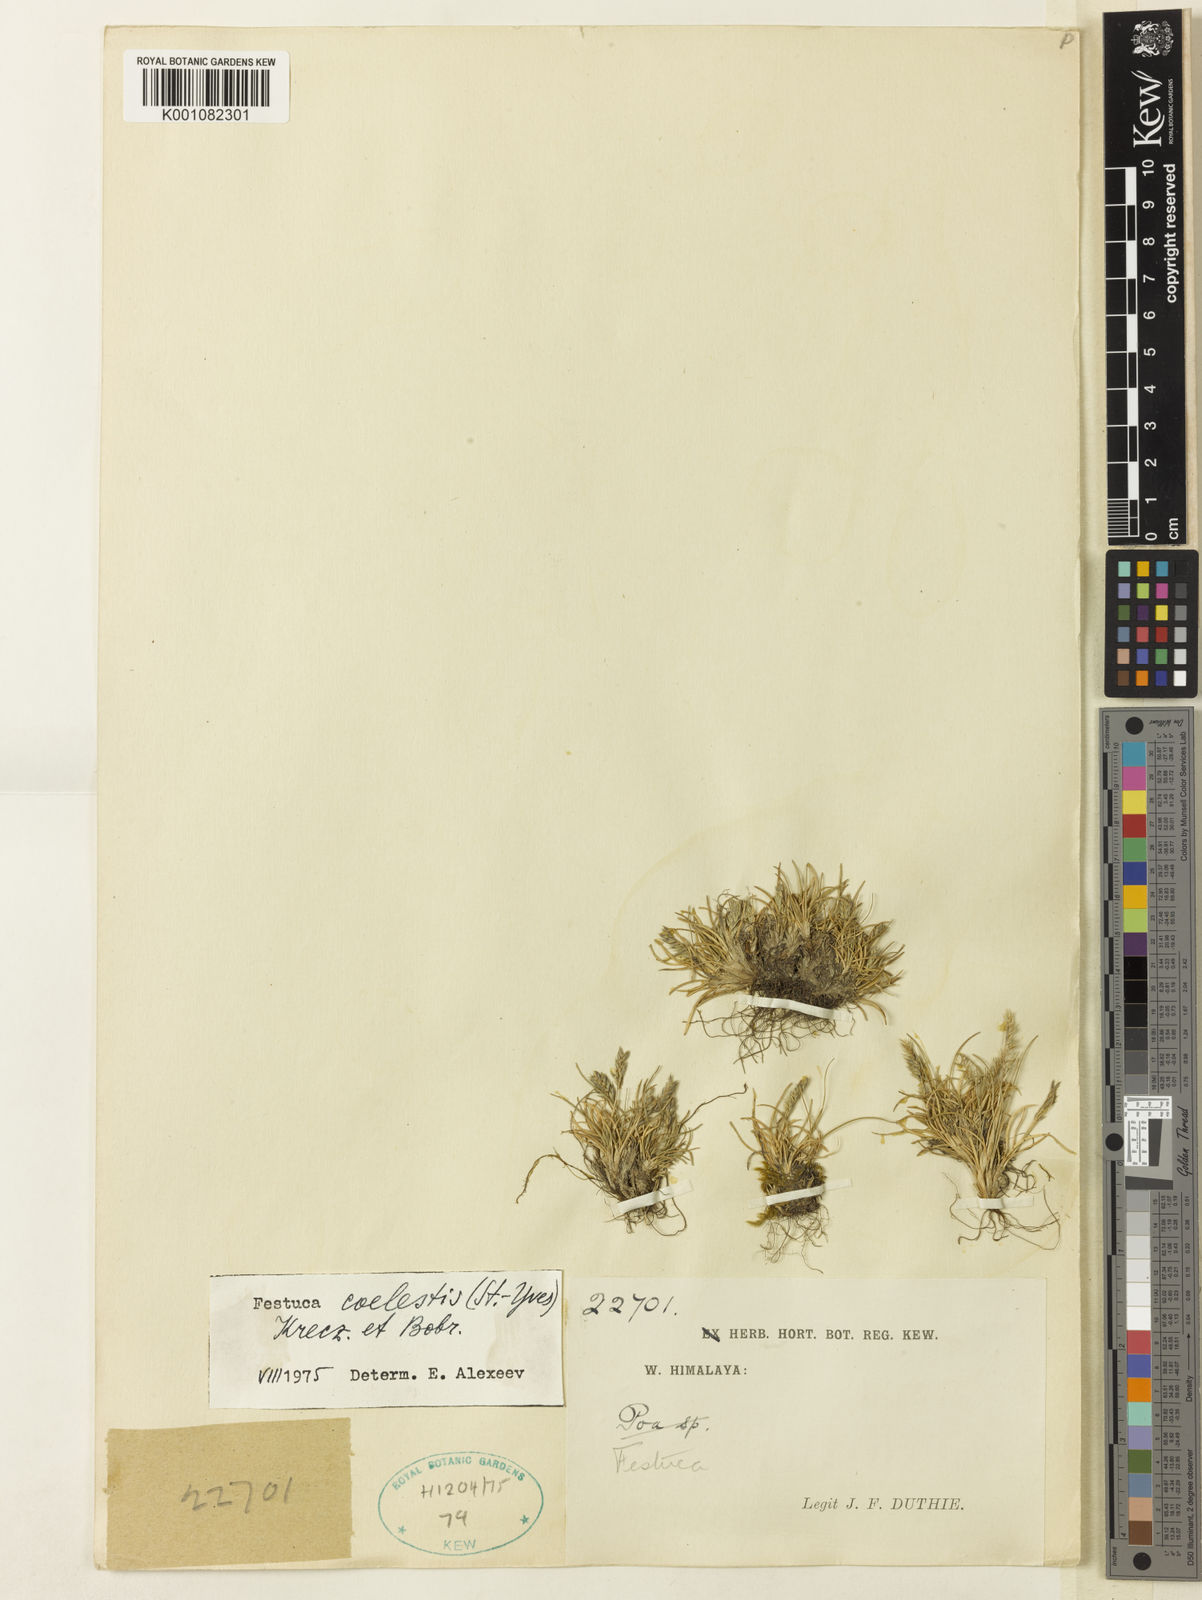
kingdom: Plantae
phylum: Tracheophyta
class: Liliopsida
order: Poales
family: Poaceae
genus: Festuca
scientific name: Festuca coelestis
